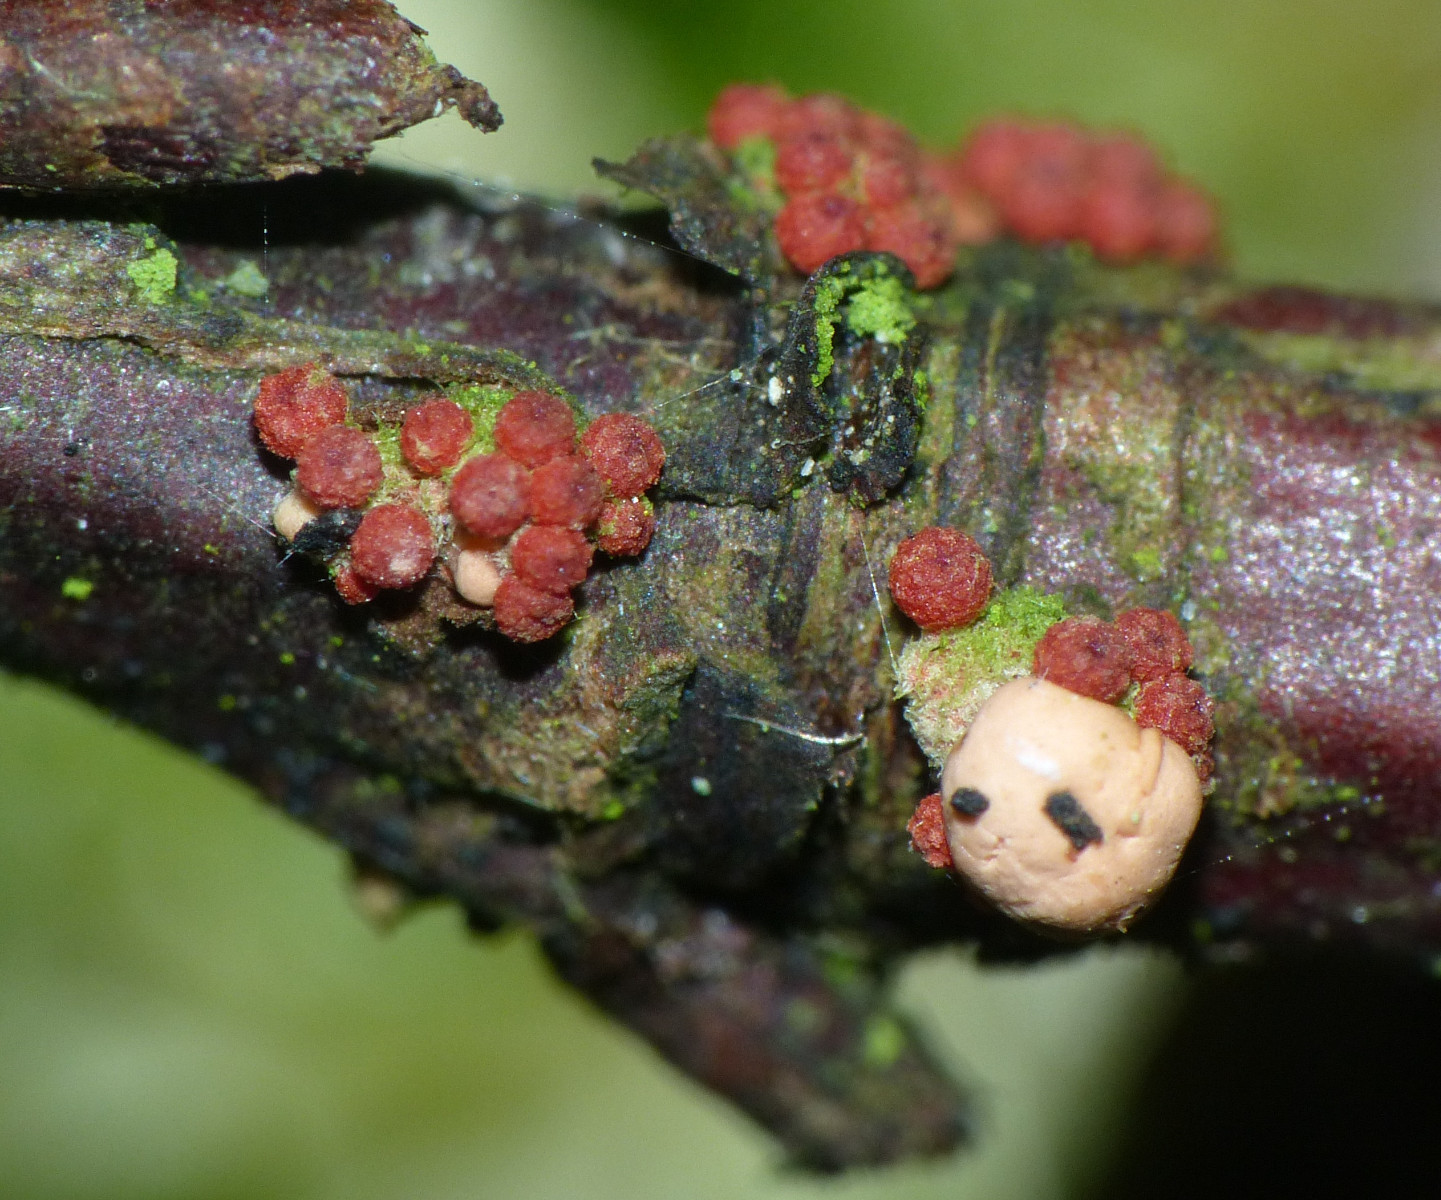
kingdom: Fungi
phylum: Ascomycota
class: Sordariomycetes
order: Hypocreales
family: Nectriaceae
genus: Nectria
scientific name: Nectria cinnabarina
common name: almindelig cinnobersvamp
